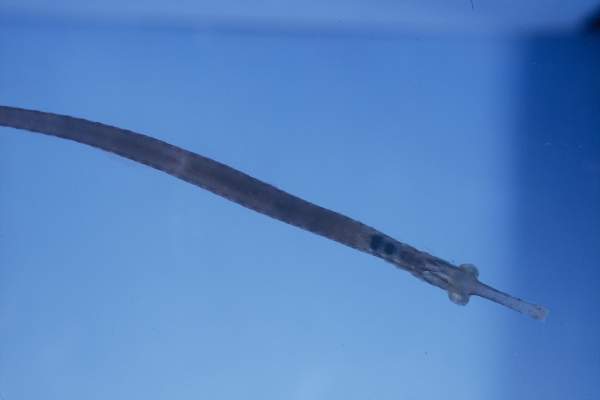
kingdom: Animalia
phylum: Chordata
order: Syngnathiformes
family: Syngnathidae
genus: Corythoichthys
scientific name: Corythoichthys insularis
